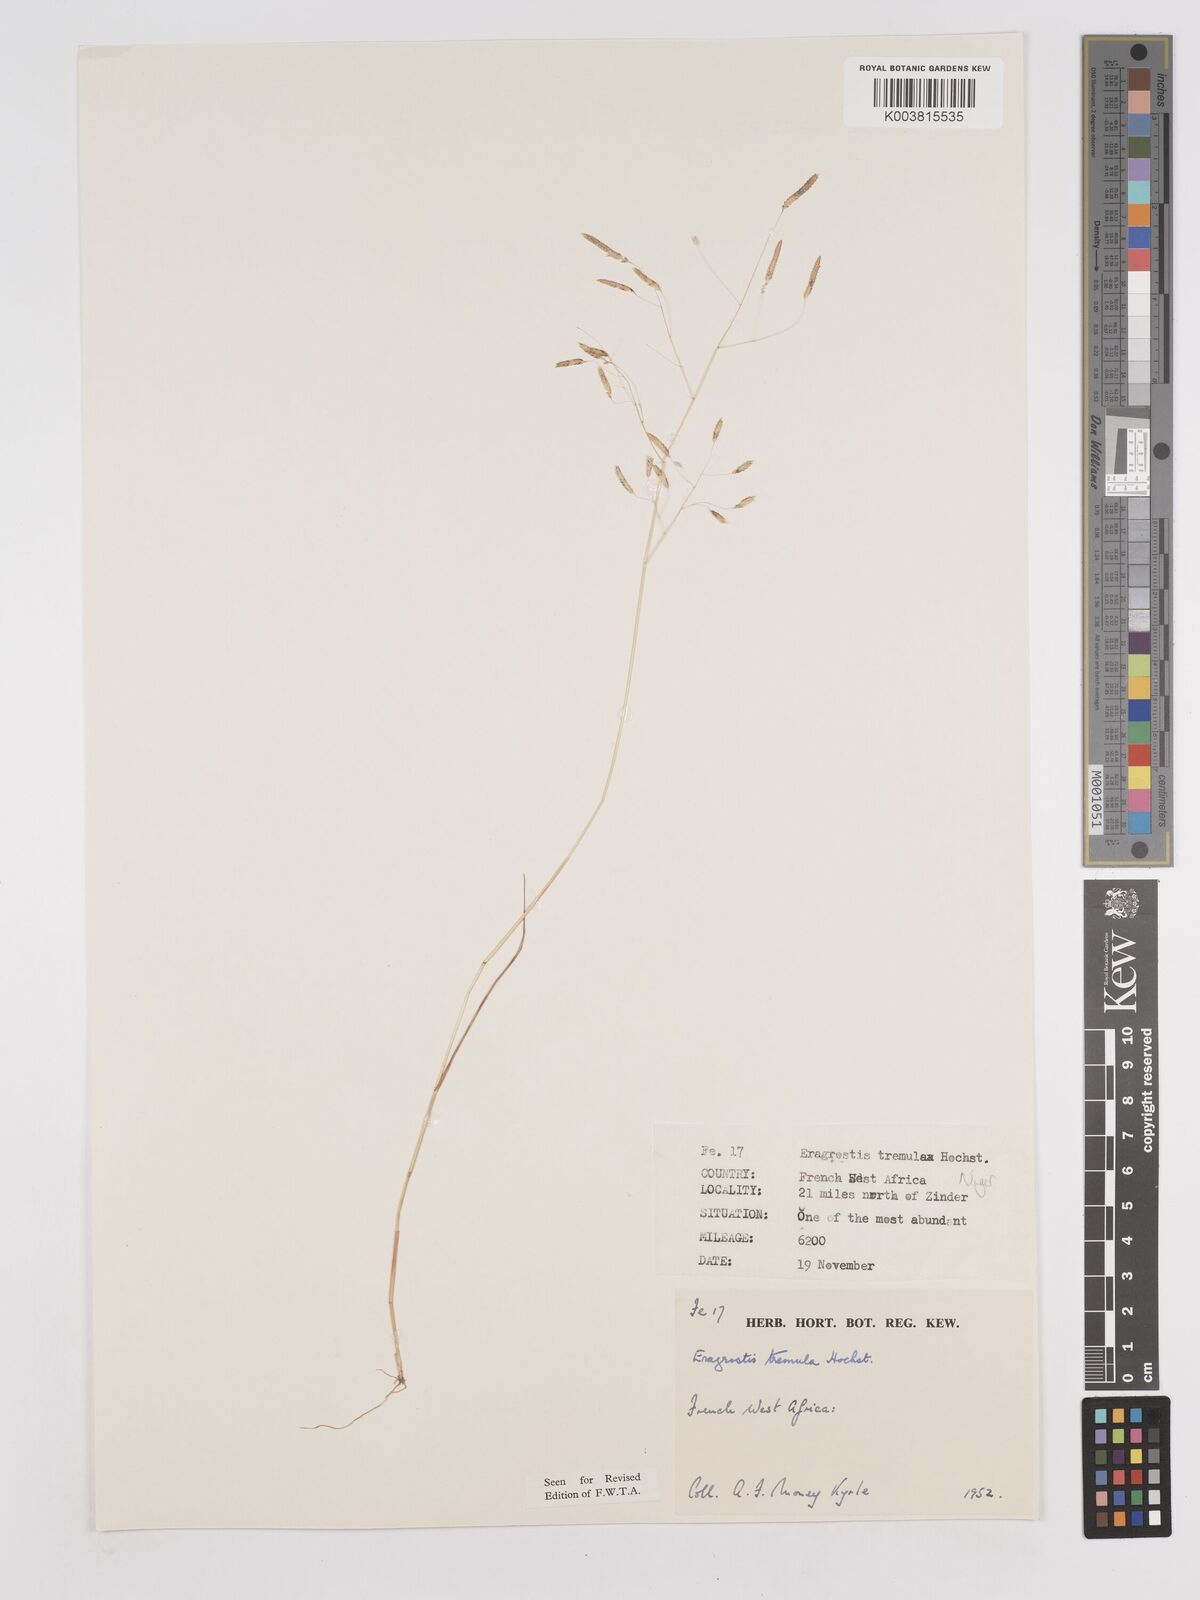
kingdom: Plantae
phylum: Tracheophyta
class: Liliopsida
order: Poales
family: Poaceae
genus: Eragrostis
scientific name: Eragrostis tremula
